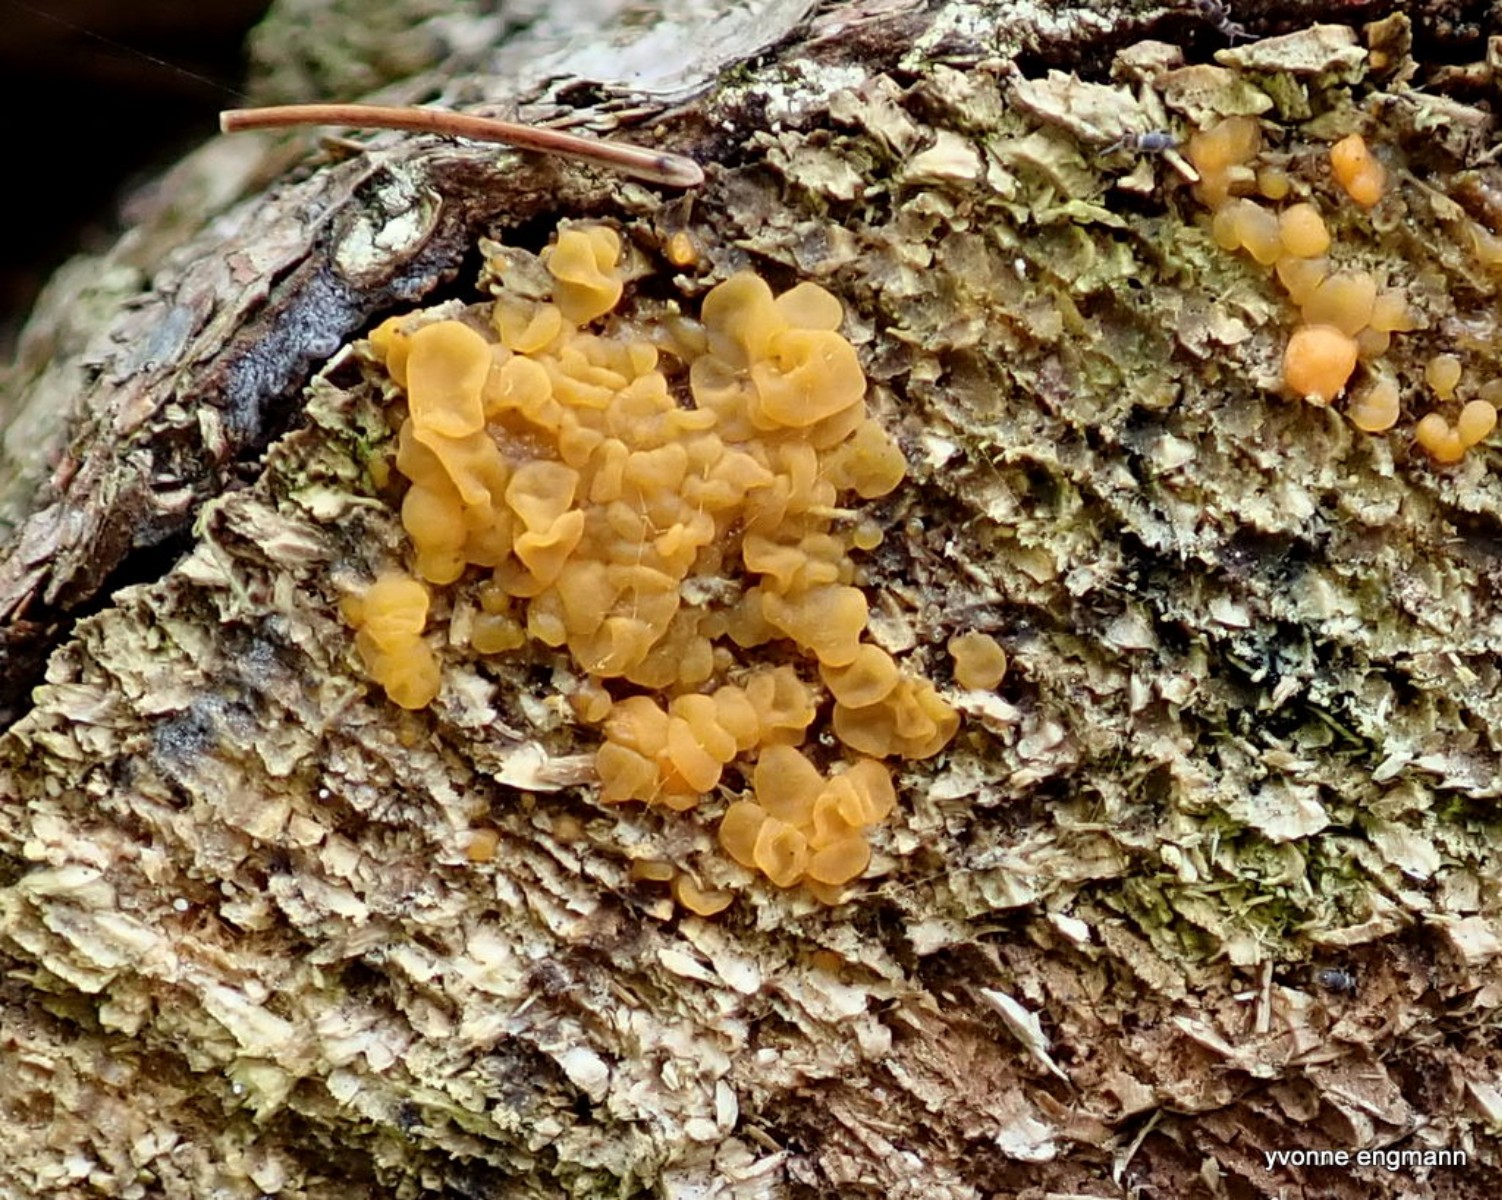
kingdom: Fungi
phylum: Basidiomycota
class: Dacrymycetes
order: Dacrymycetales
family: Dacrymycetaceae
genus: Dacrymyces
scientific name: Dacrymyces lacrymalis
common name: rynket tåresvamp
